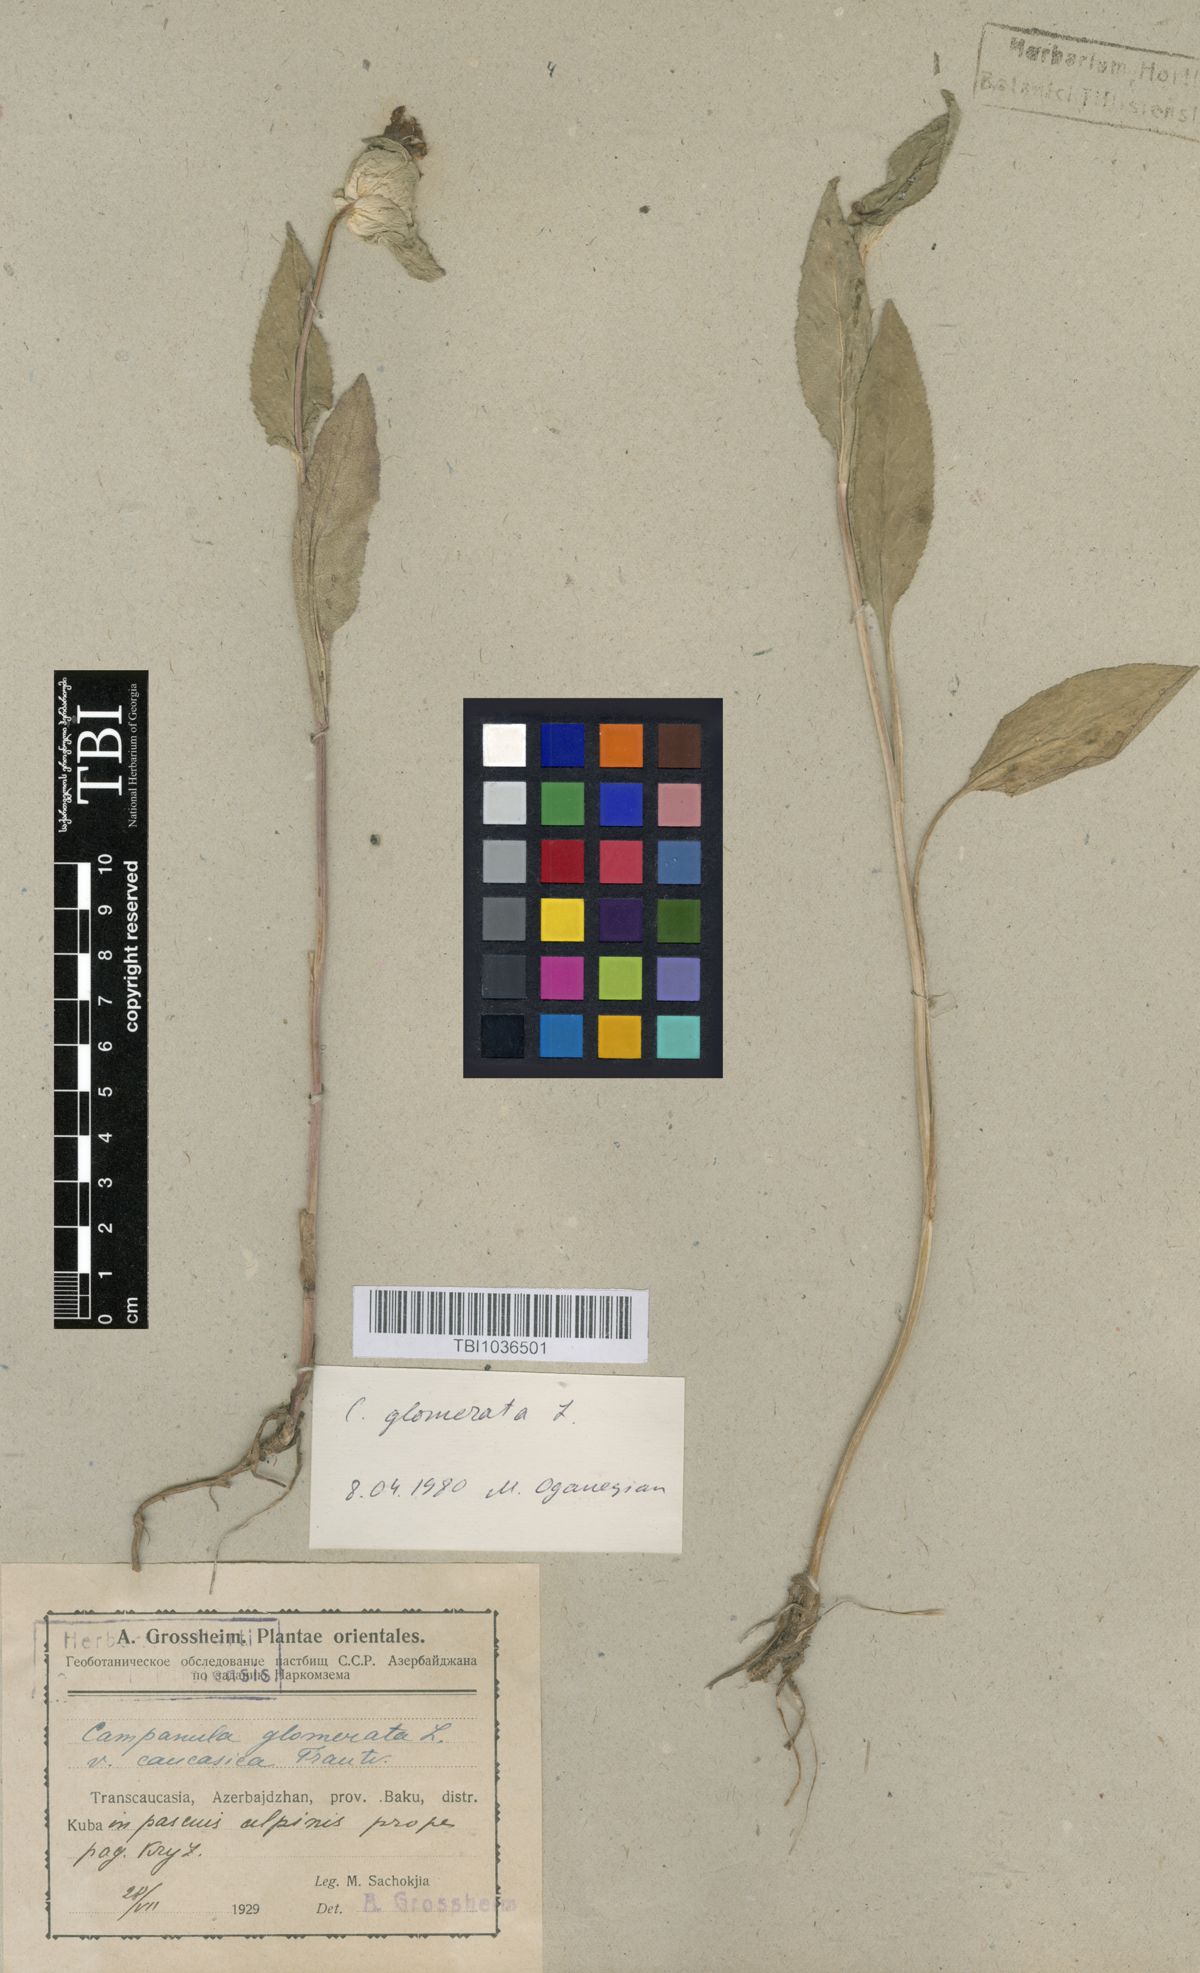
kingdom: Plantae
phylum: Tracheophyta
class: Magnoliopsida
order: Asterales
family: Campanulaceae
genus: Campanula
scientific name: Campanula glomerata
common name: Clustered bellflower
